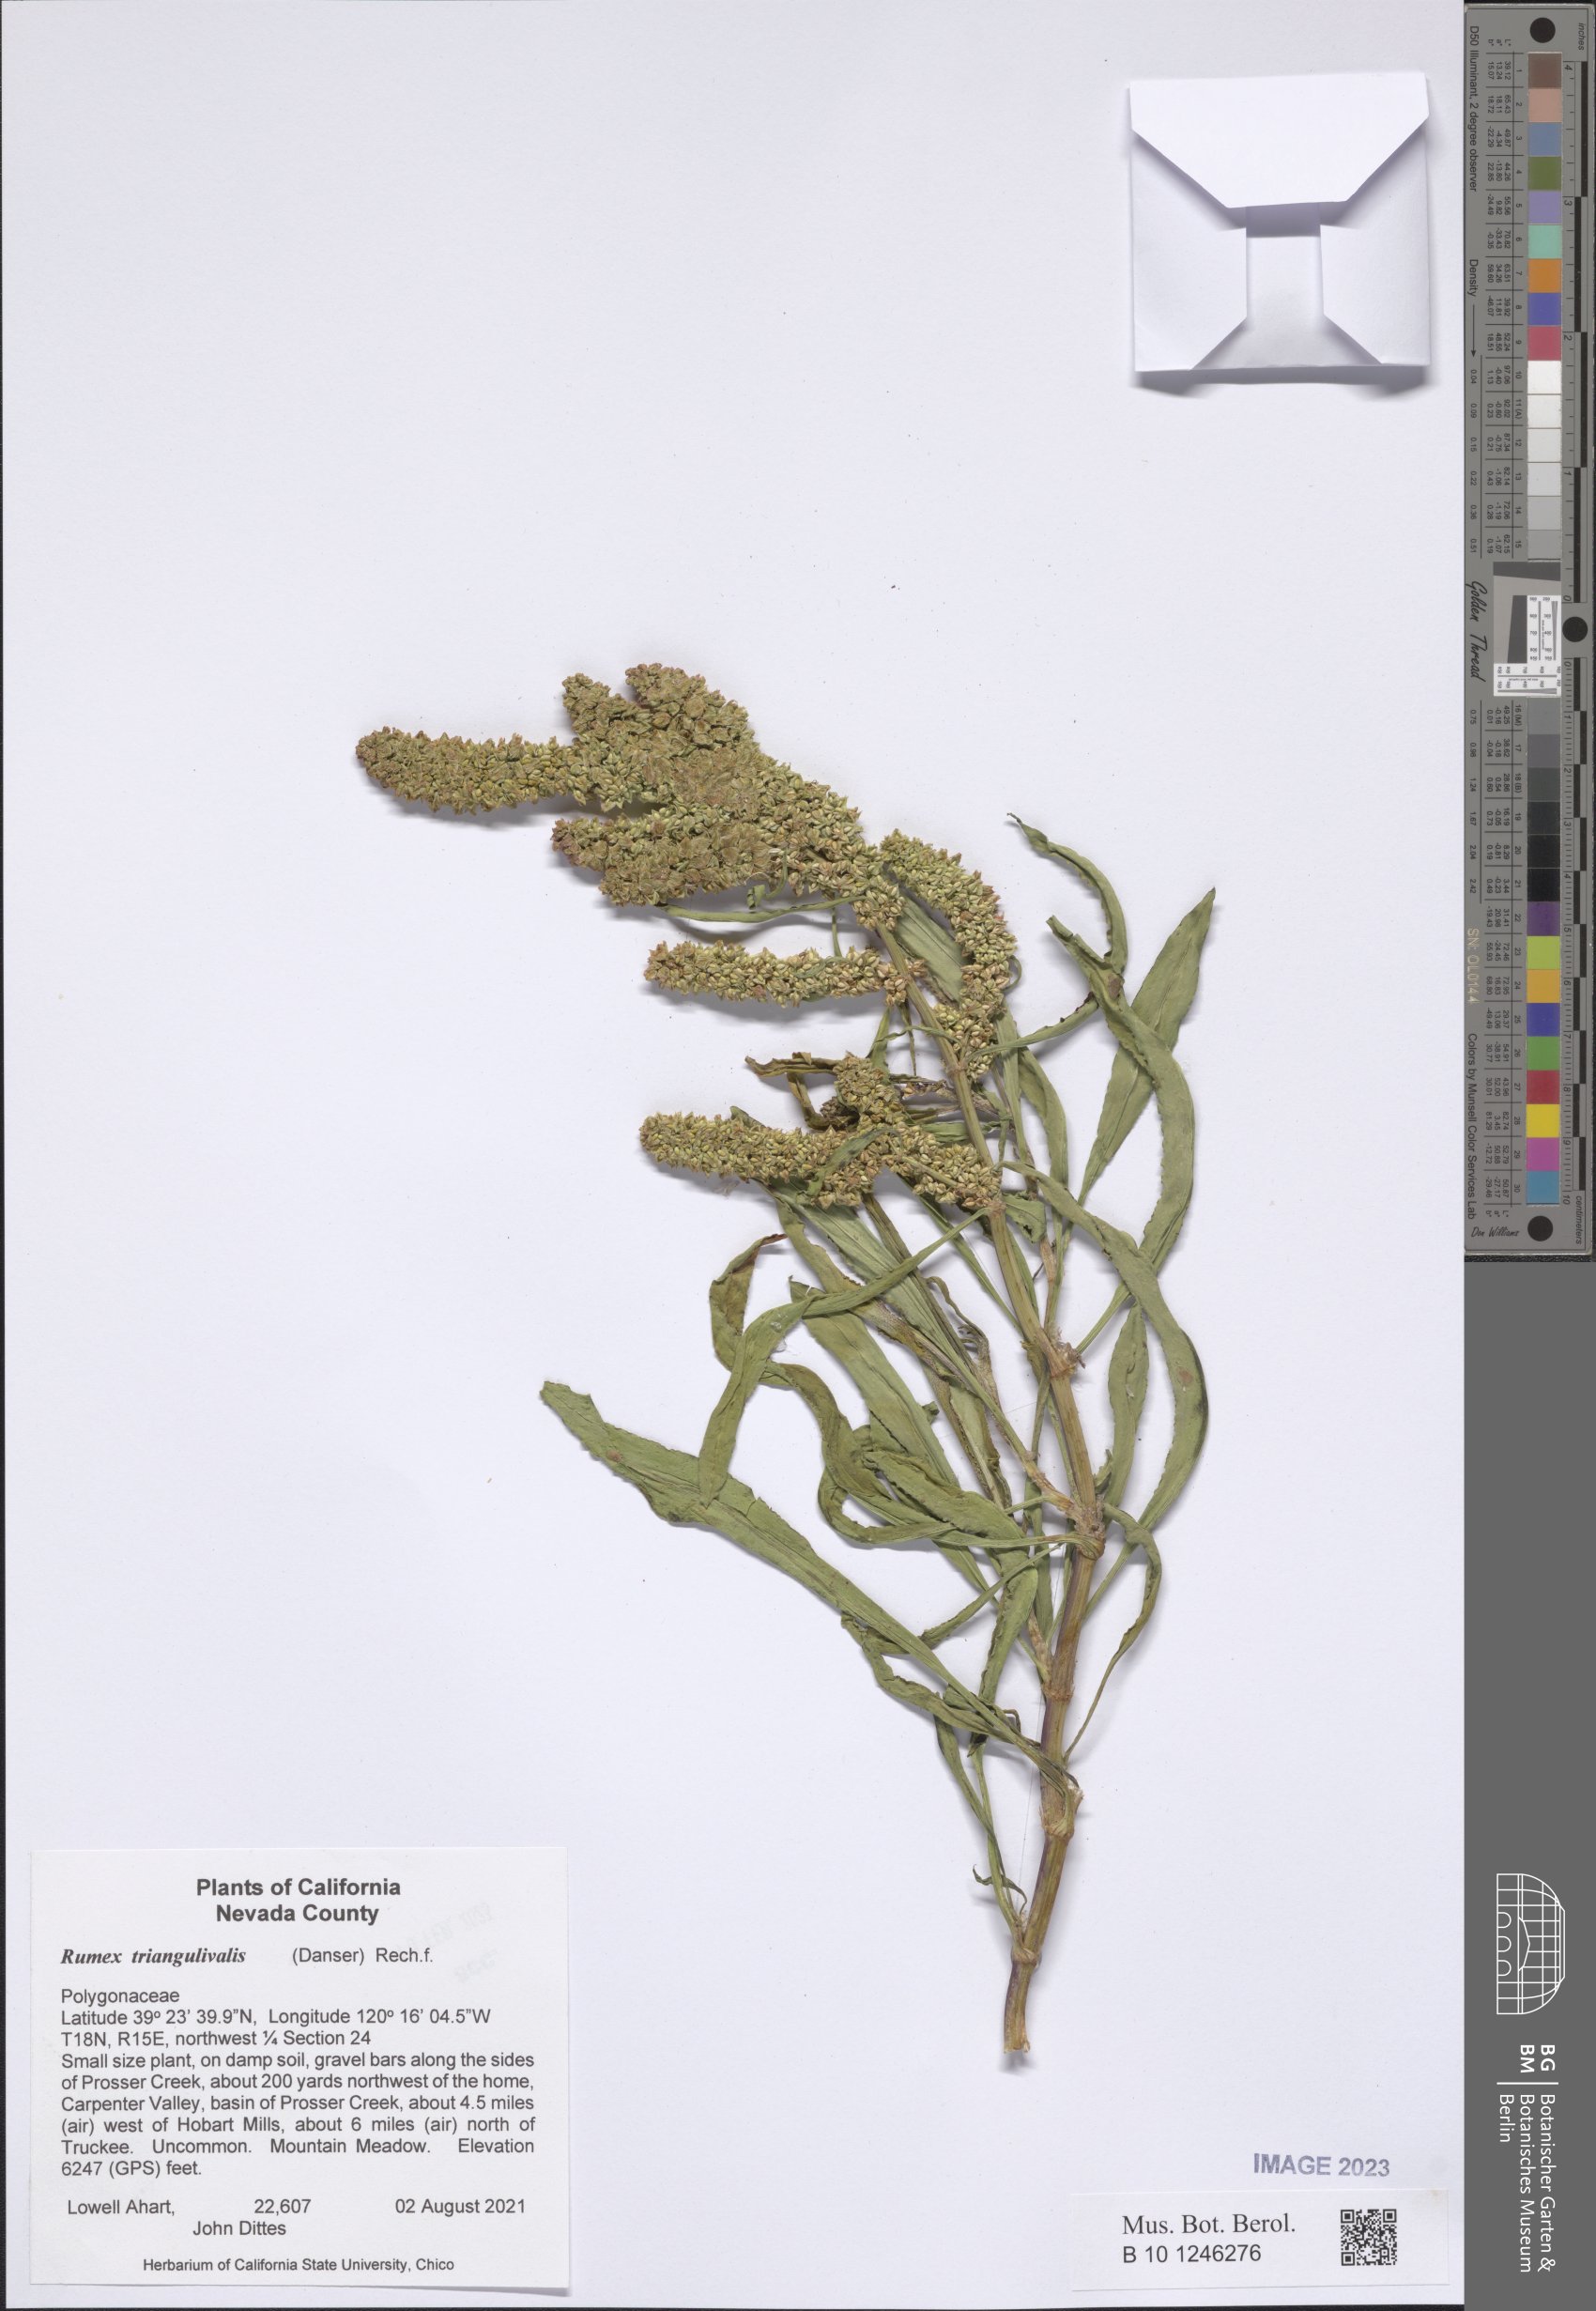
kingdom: Plantae
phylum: Tracheophyta
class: Magnoliopsida
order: Caryophyllales
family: Polygonaceae
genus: Rumex
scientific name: Rumex triangularis
